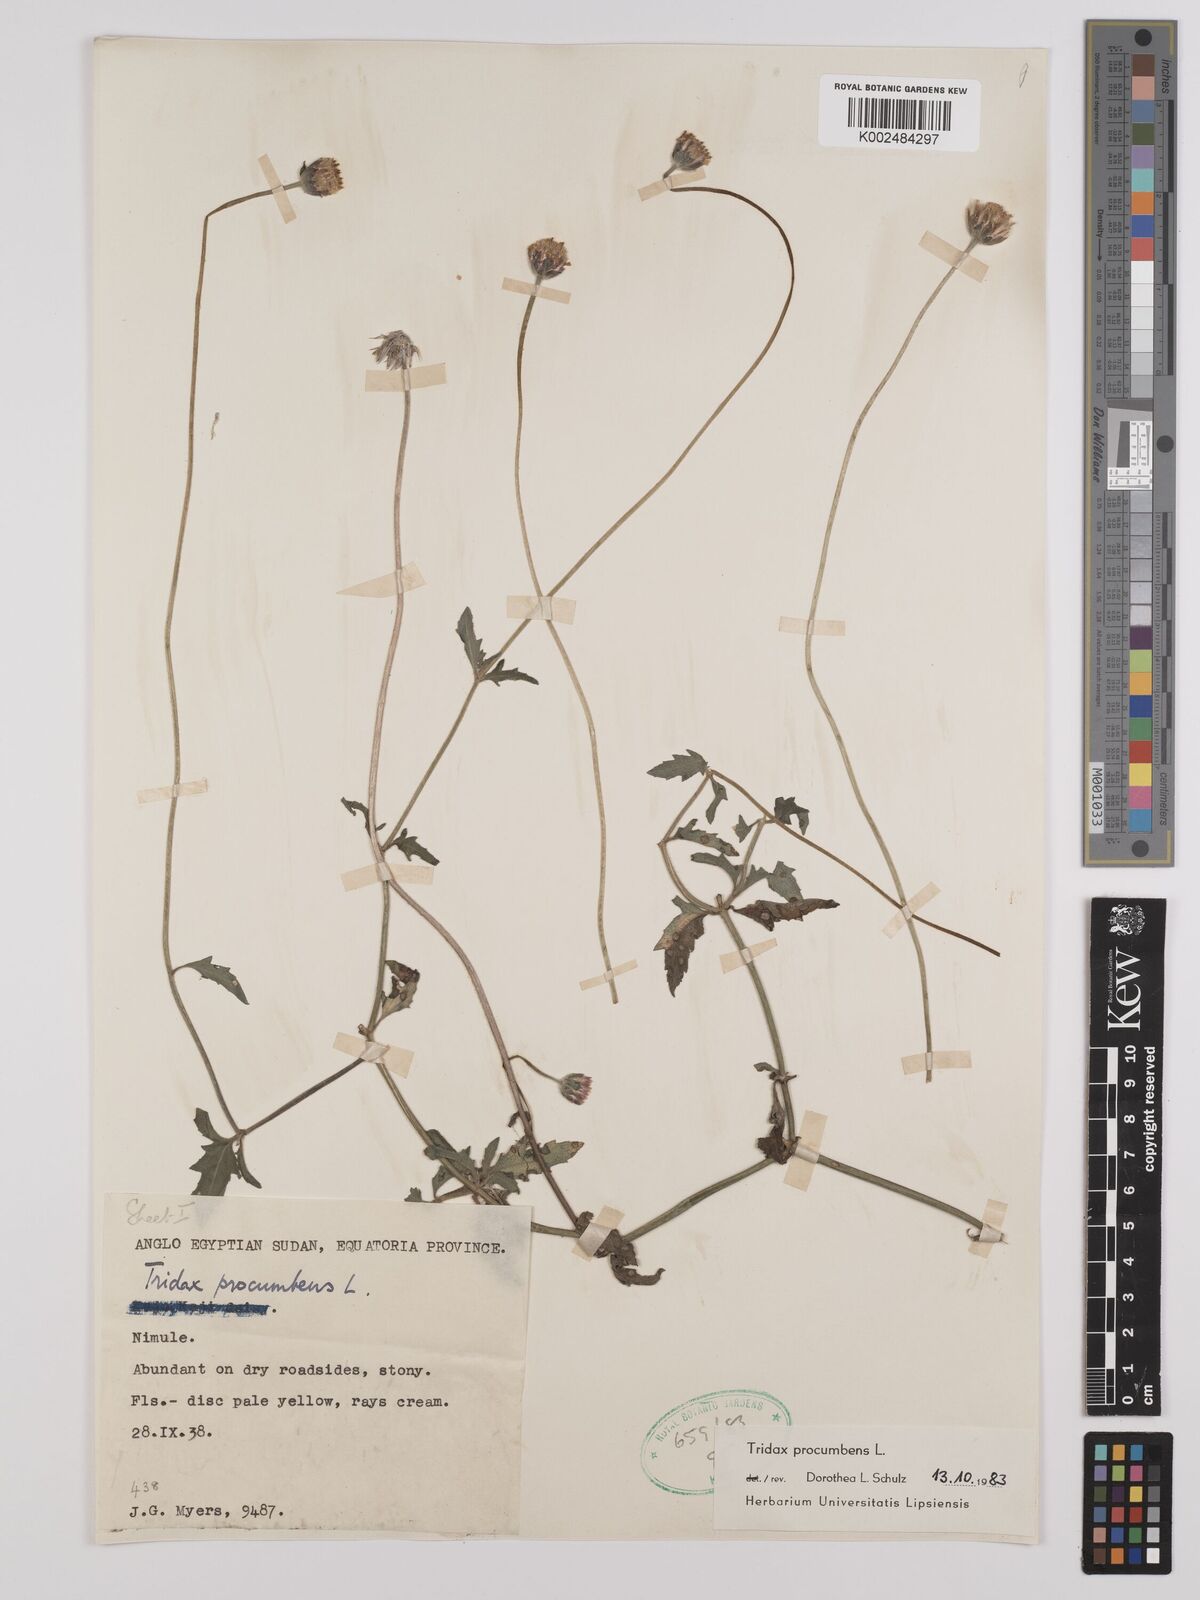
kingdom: Plantae
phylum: Tracheophyta
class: Magnoliopsida
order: Asterales
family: Asteraceae
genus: Tridax
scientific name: Tridax procumbens
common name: Coatbuttons
